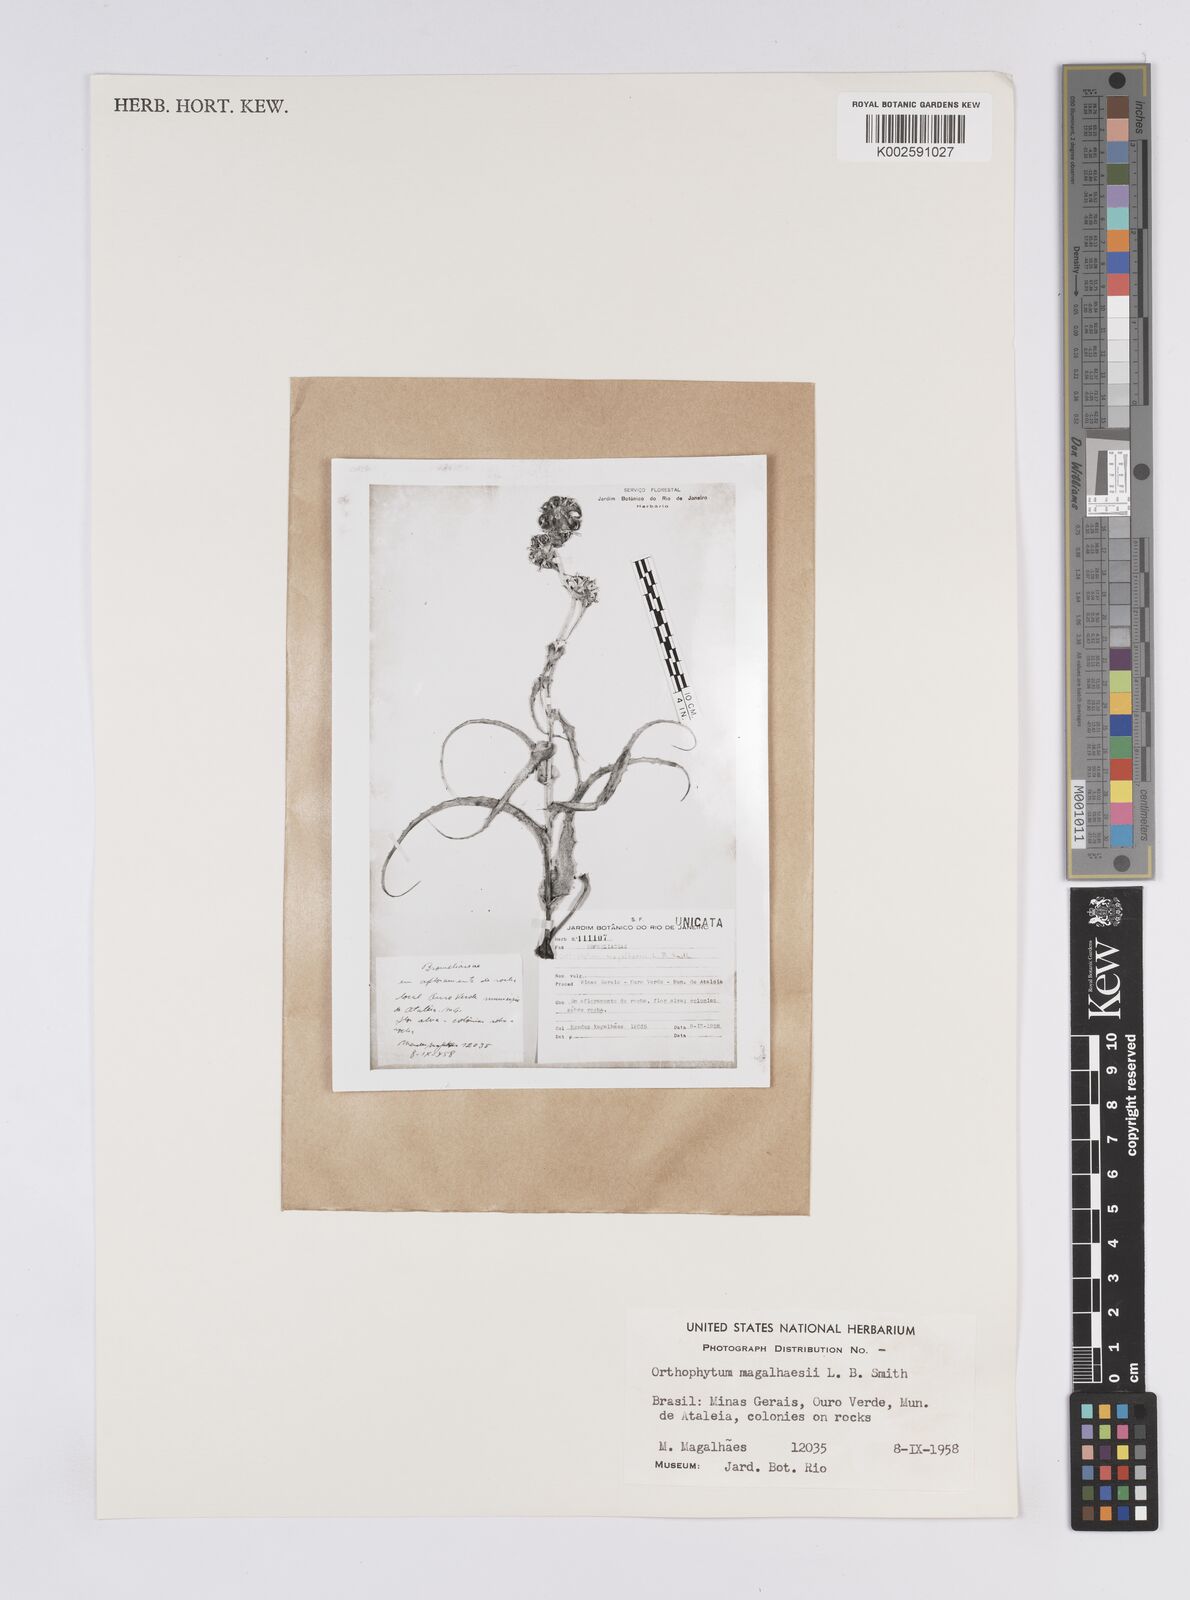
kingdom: Plantae
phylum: Tracheophyta
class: Liliopsida
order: Poales
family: Bromeliaceae
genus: Orthophytum
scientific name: Orthophytum magalhaesii
